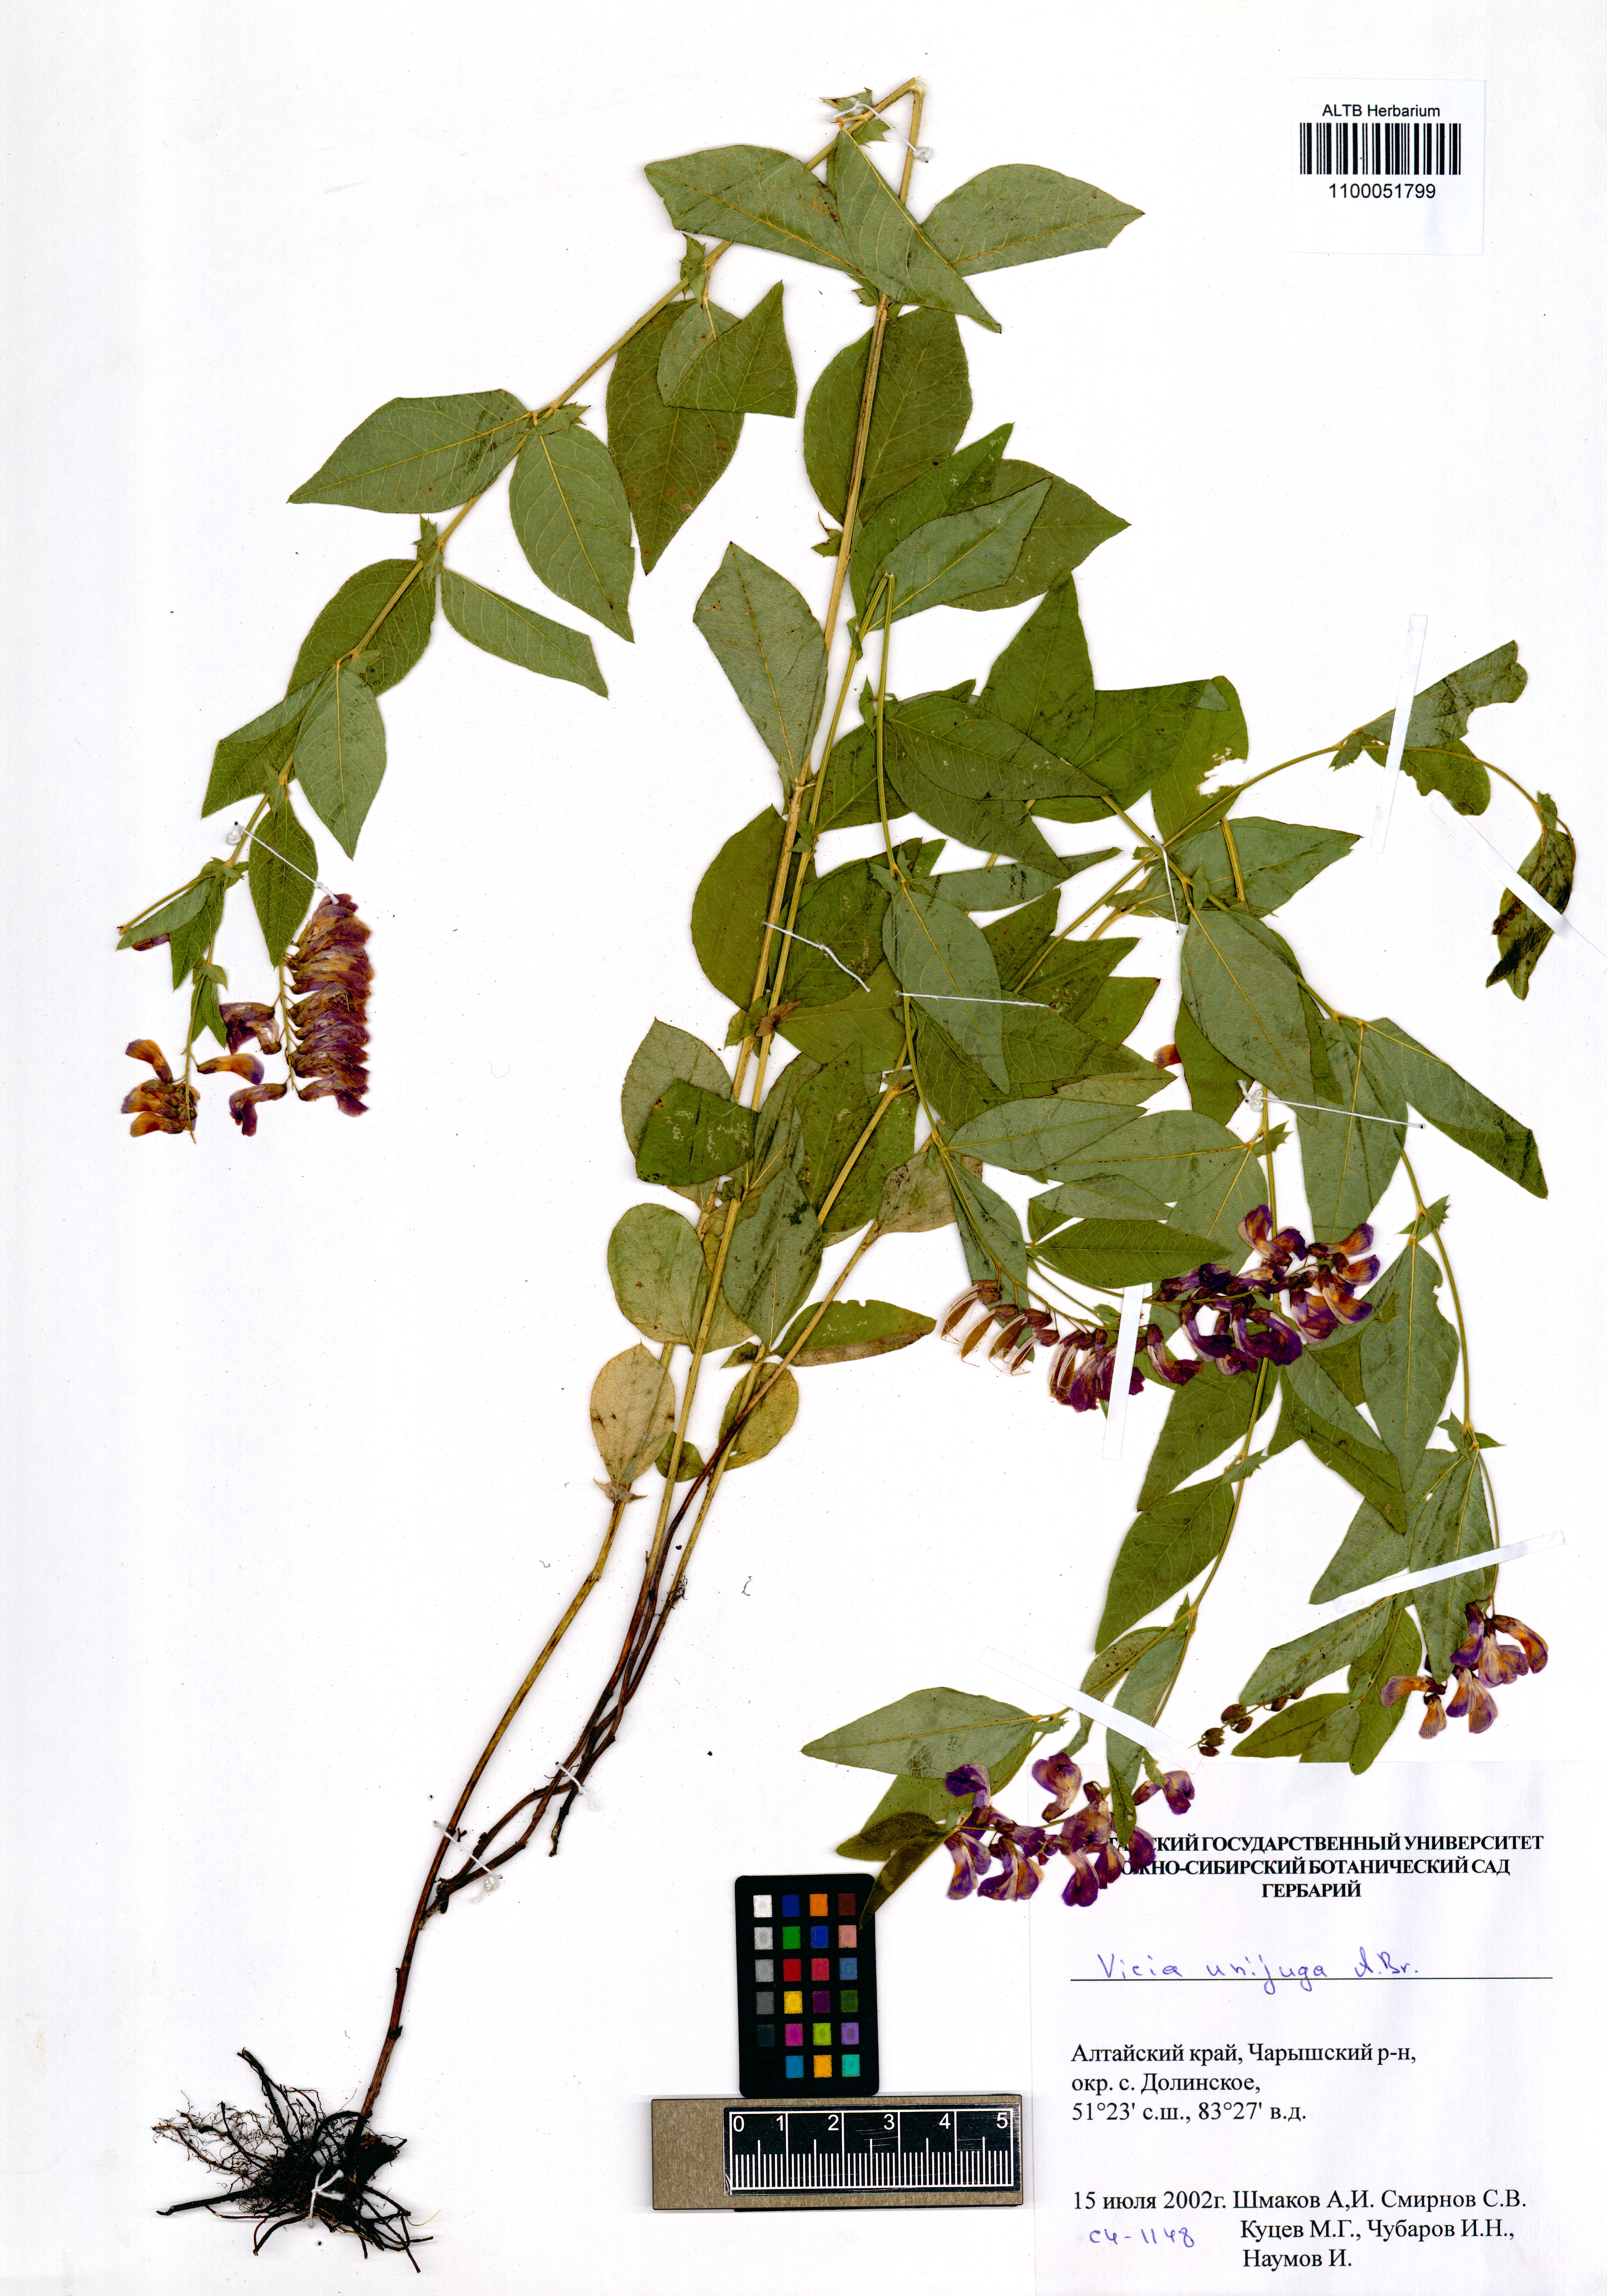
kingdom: Plantae
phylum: Tracheophyta
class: Magnoliopsida
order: Fabales
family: Fabaceae
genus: Vicia
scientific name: Vicia unijuga
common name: Two-leaf vetch
